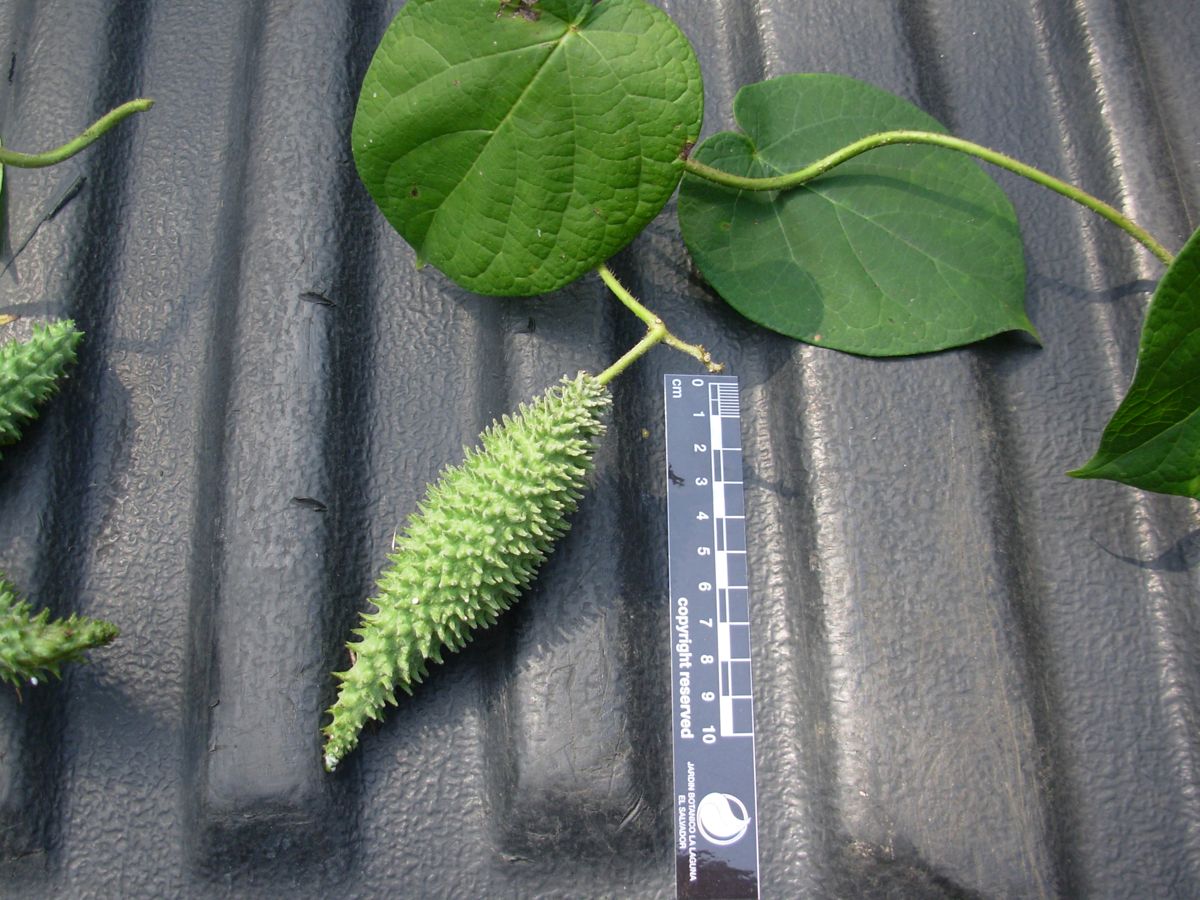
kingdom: Plantae
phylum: Tracheophyta
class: Magnoliopsida
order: Gentianales
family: Apocynaceae
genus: Matelea
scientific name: Matelea prosthecidiscus
